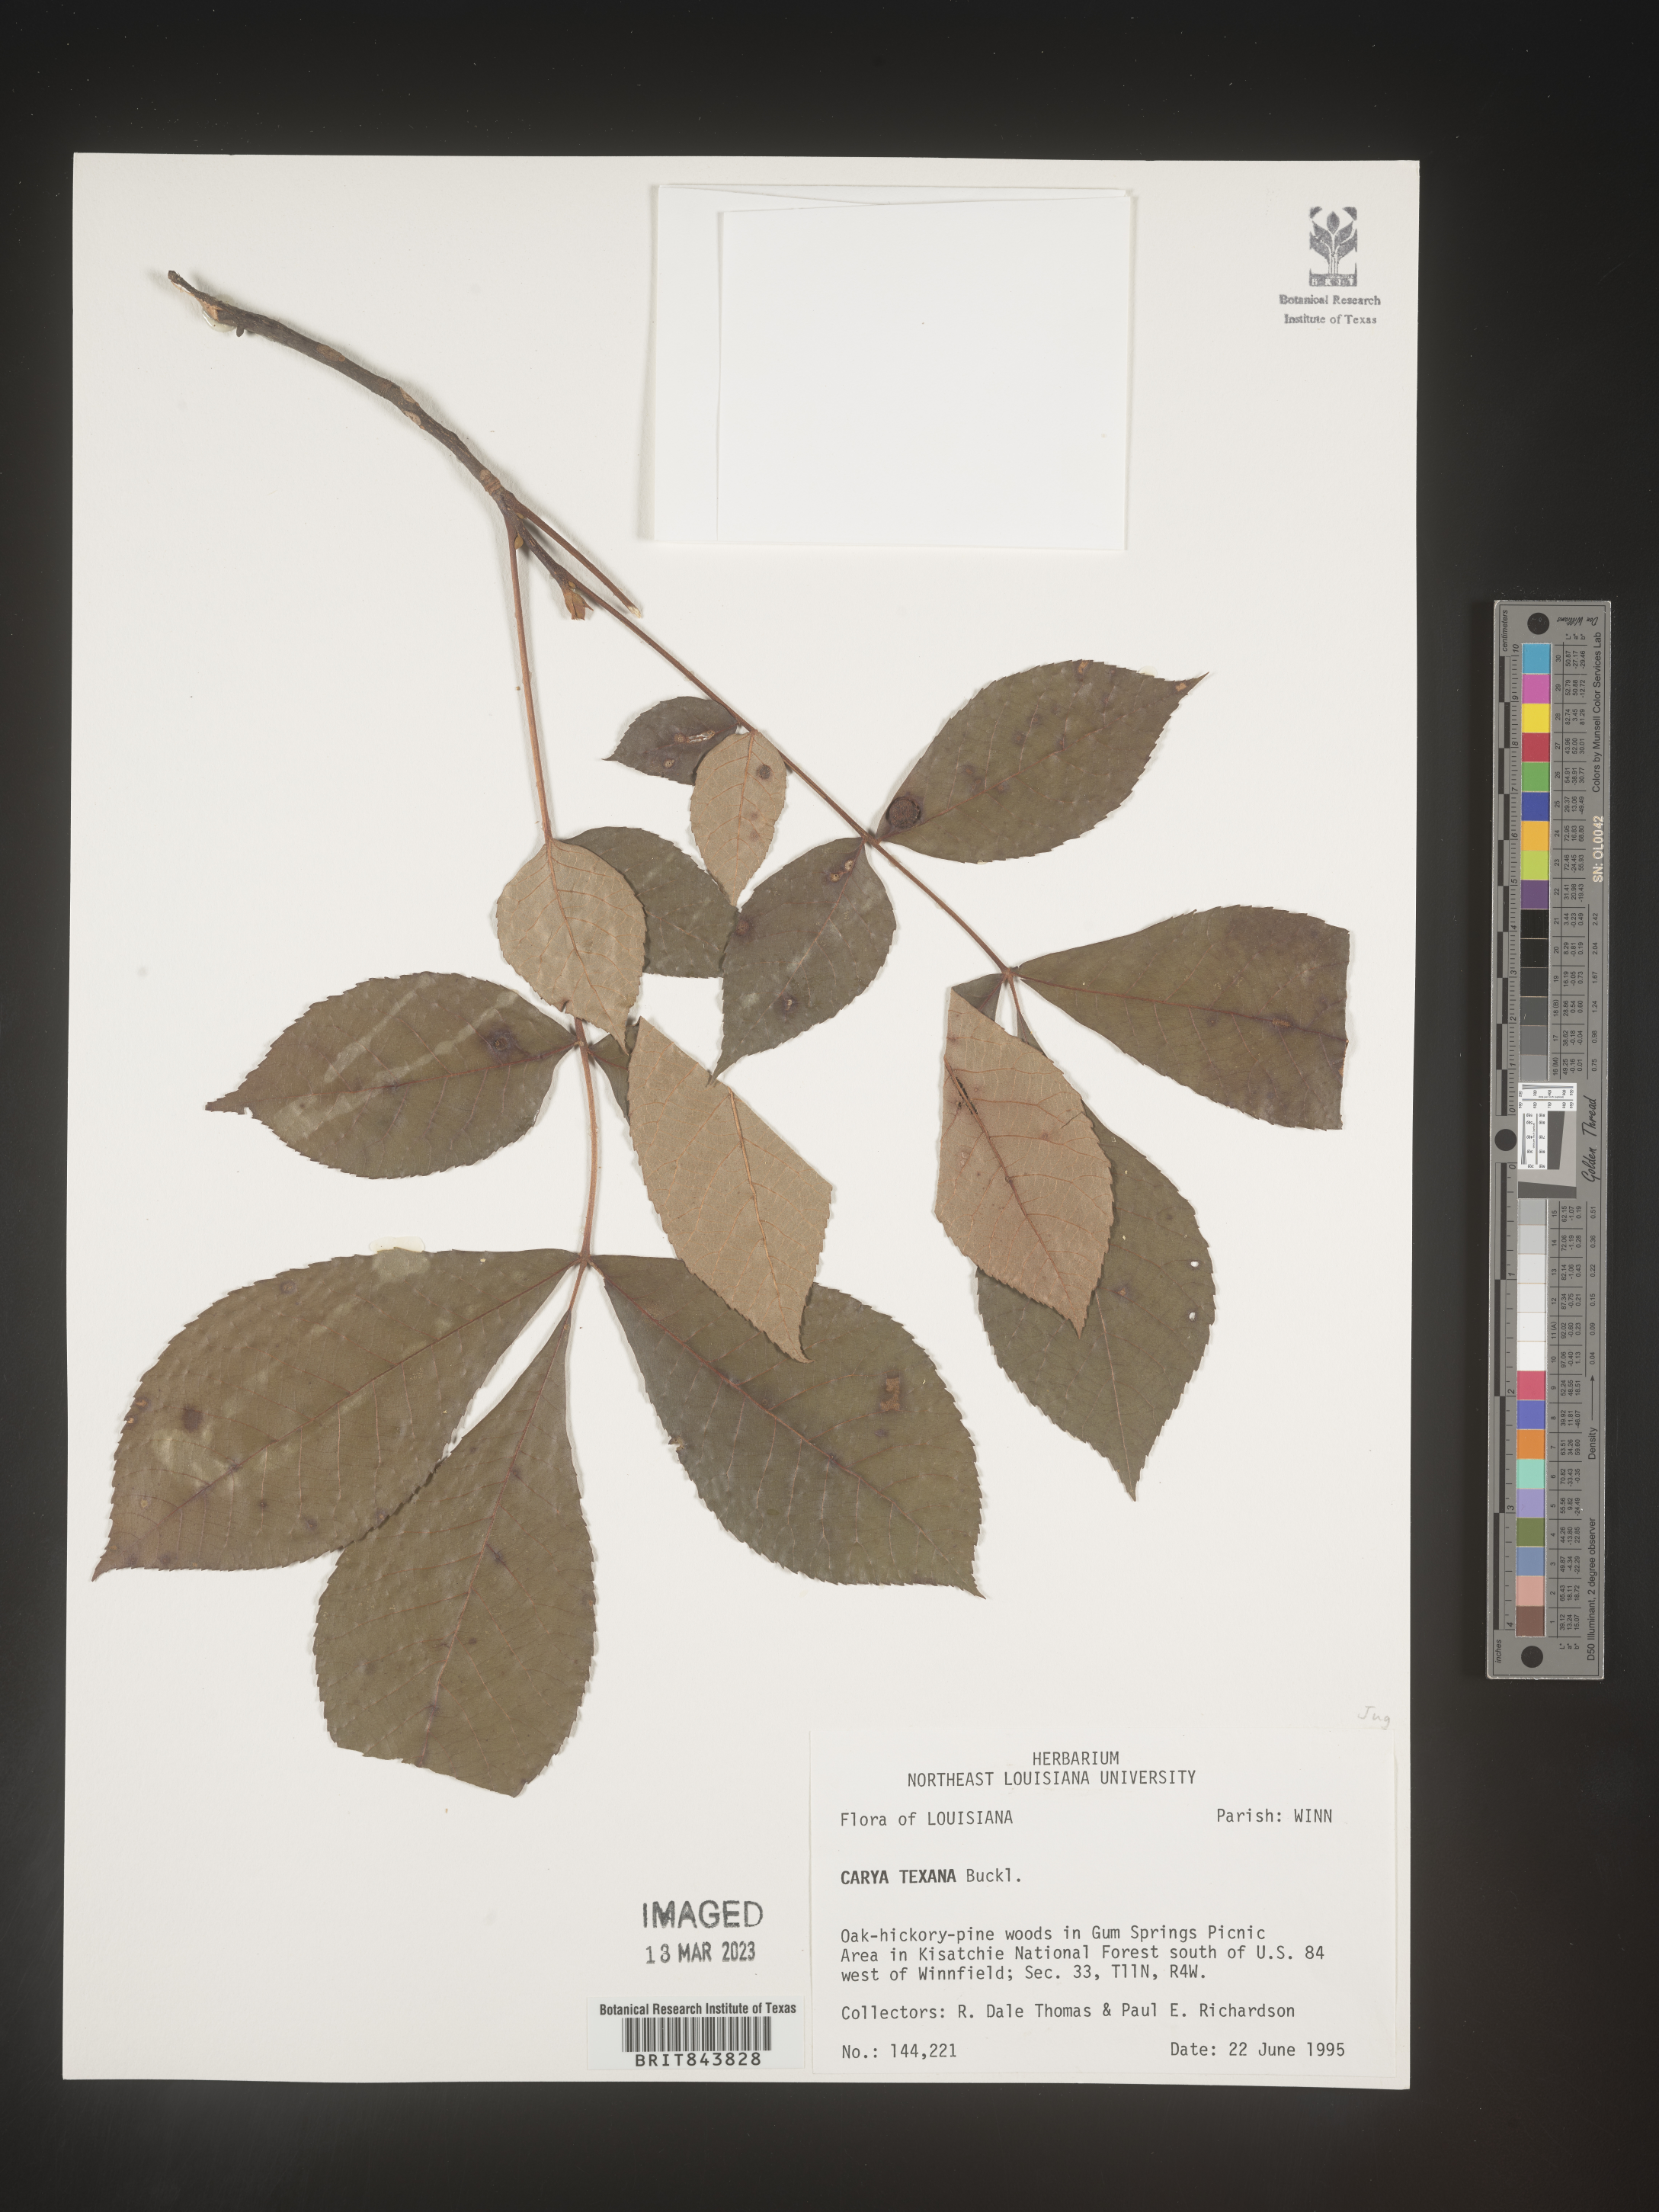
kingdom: Plantae
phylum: Tracheophyta
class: Magnoliopsida
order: Fagales
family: Juglandaceae
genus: Carya
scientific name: Carya texana
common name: Black hickory
